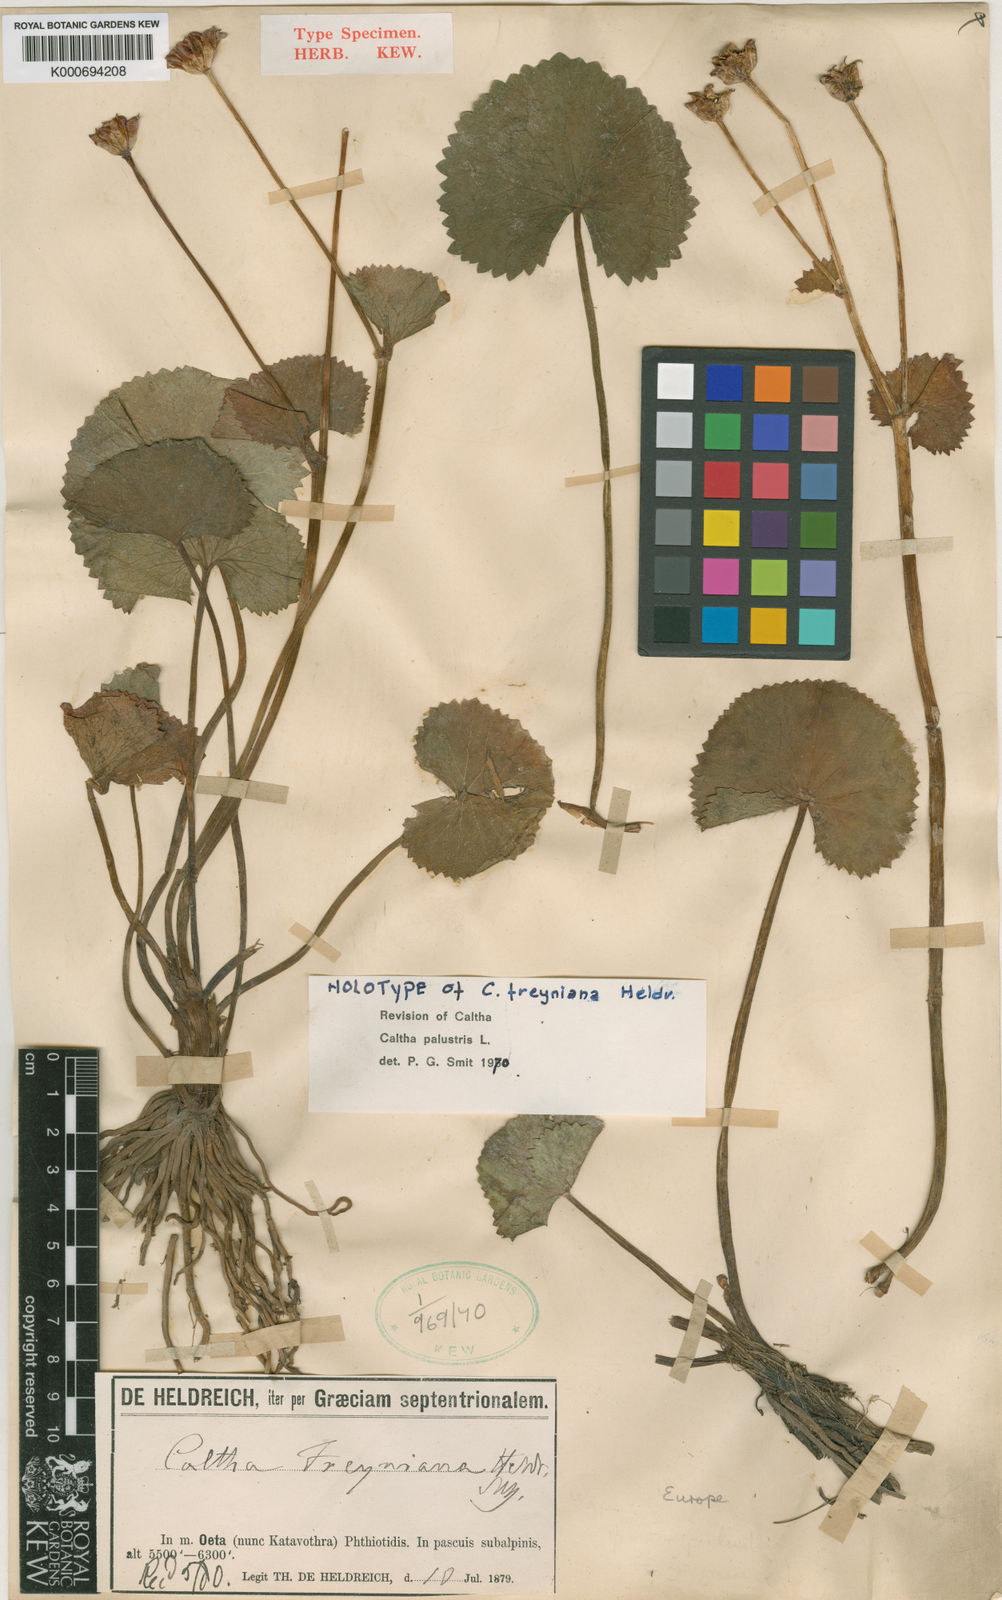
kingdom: Plantae
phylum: Tracheophyta
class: Magnoliopsida
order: Ranunculales
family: Ranunculaceae
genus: Caltha
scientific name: Caltha palustris
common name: Marsh marigold
